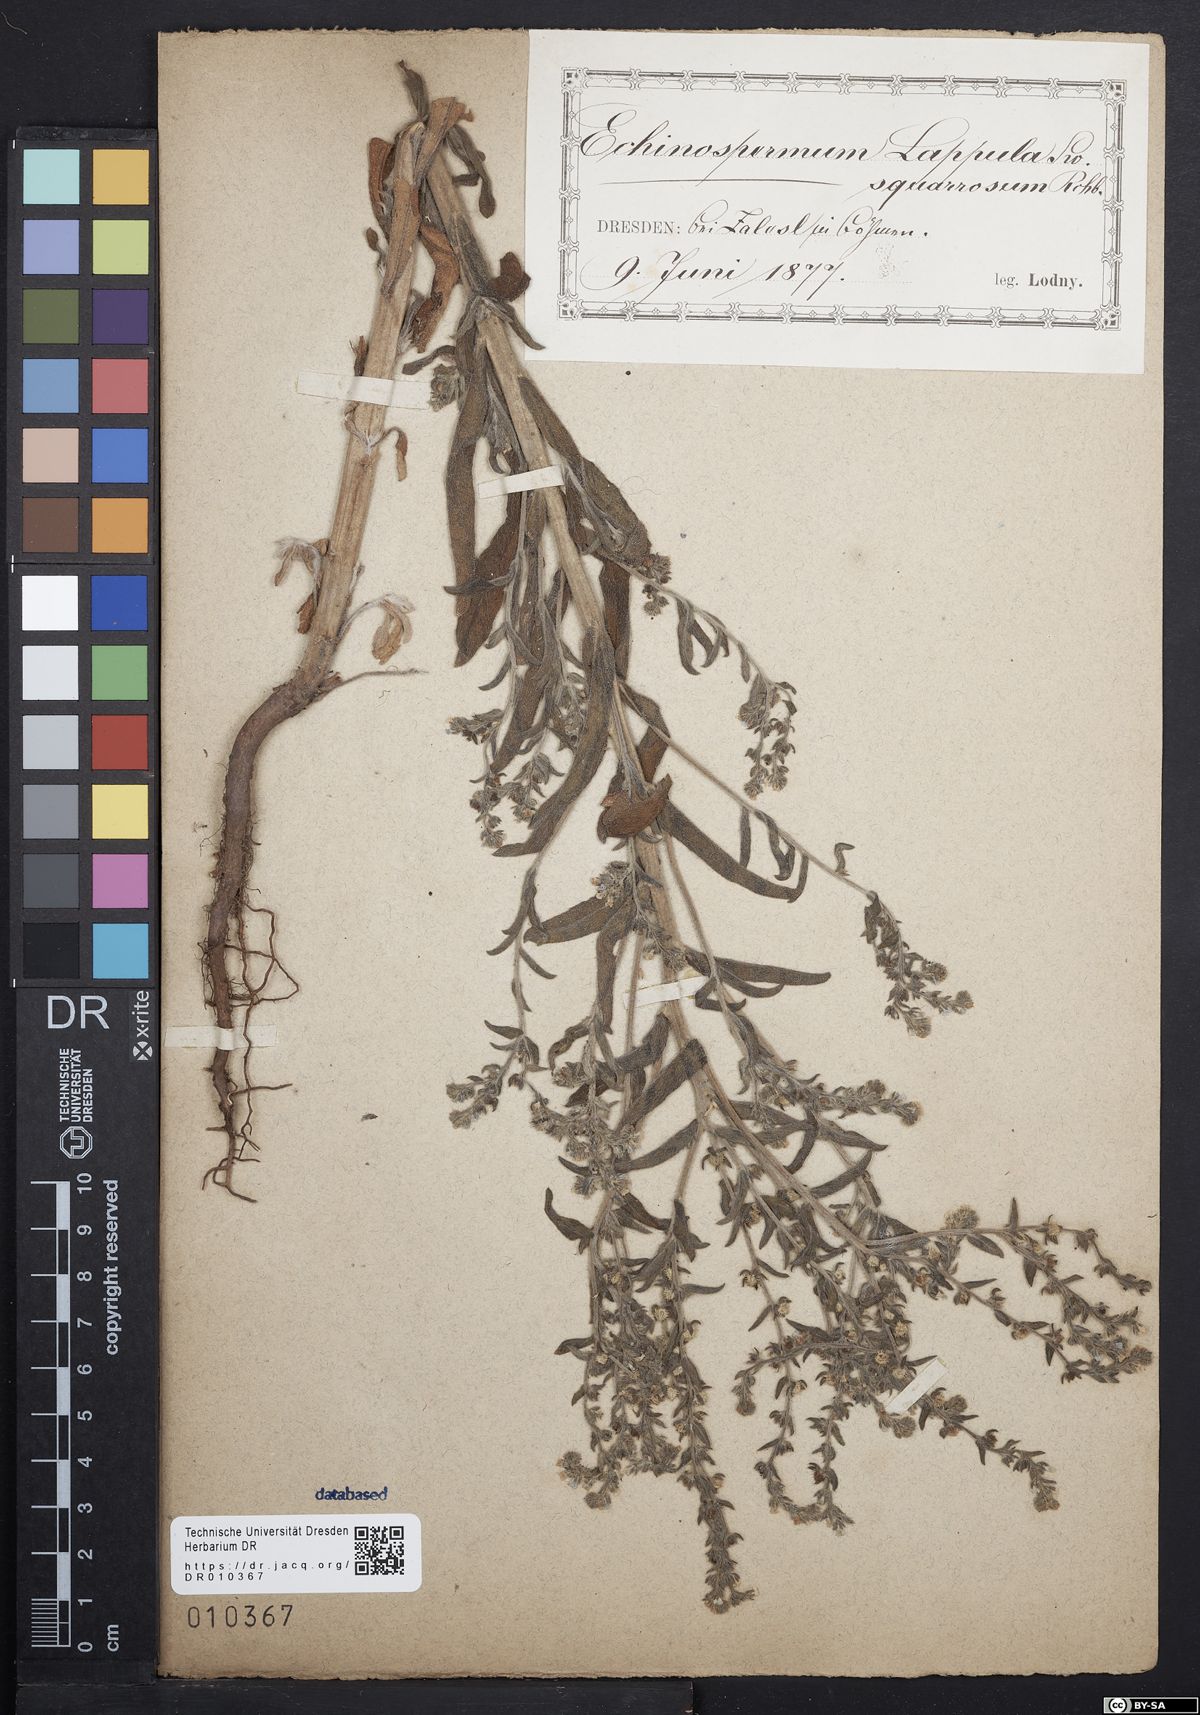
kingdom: Plantae
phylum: Tracheophyta
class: Magnoliopsida
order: Boraginales
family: Boraginaceae
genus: Lappula
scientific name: Lappula squarrosa
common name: European stickseed
